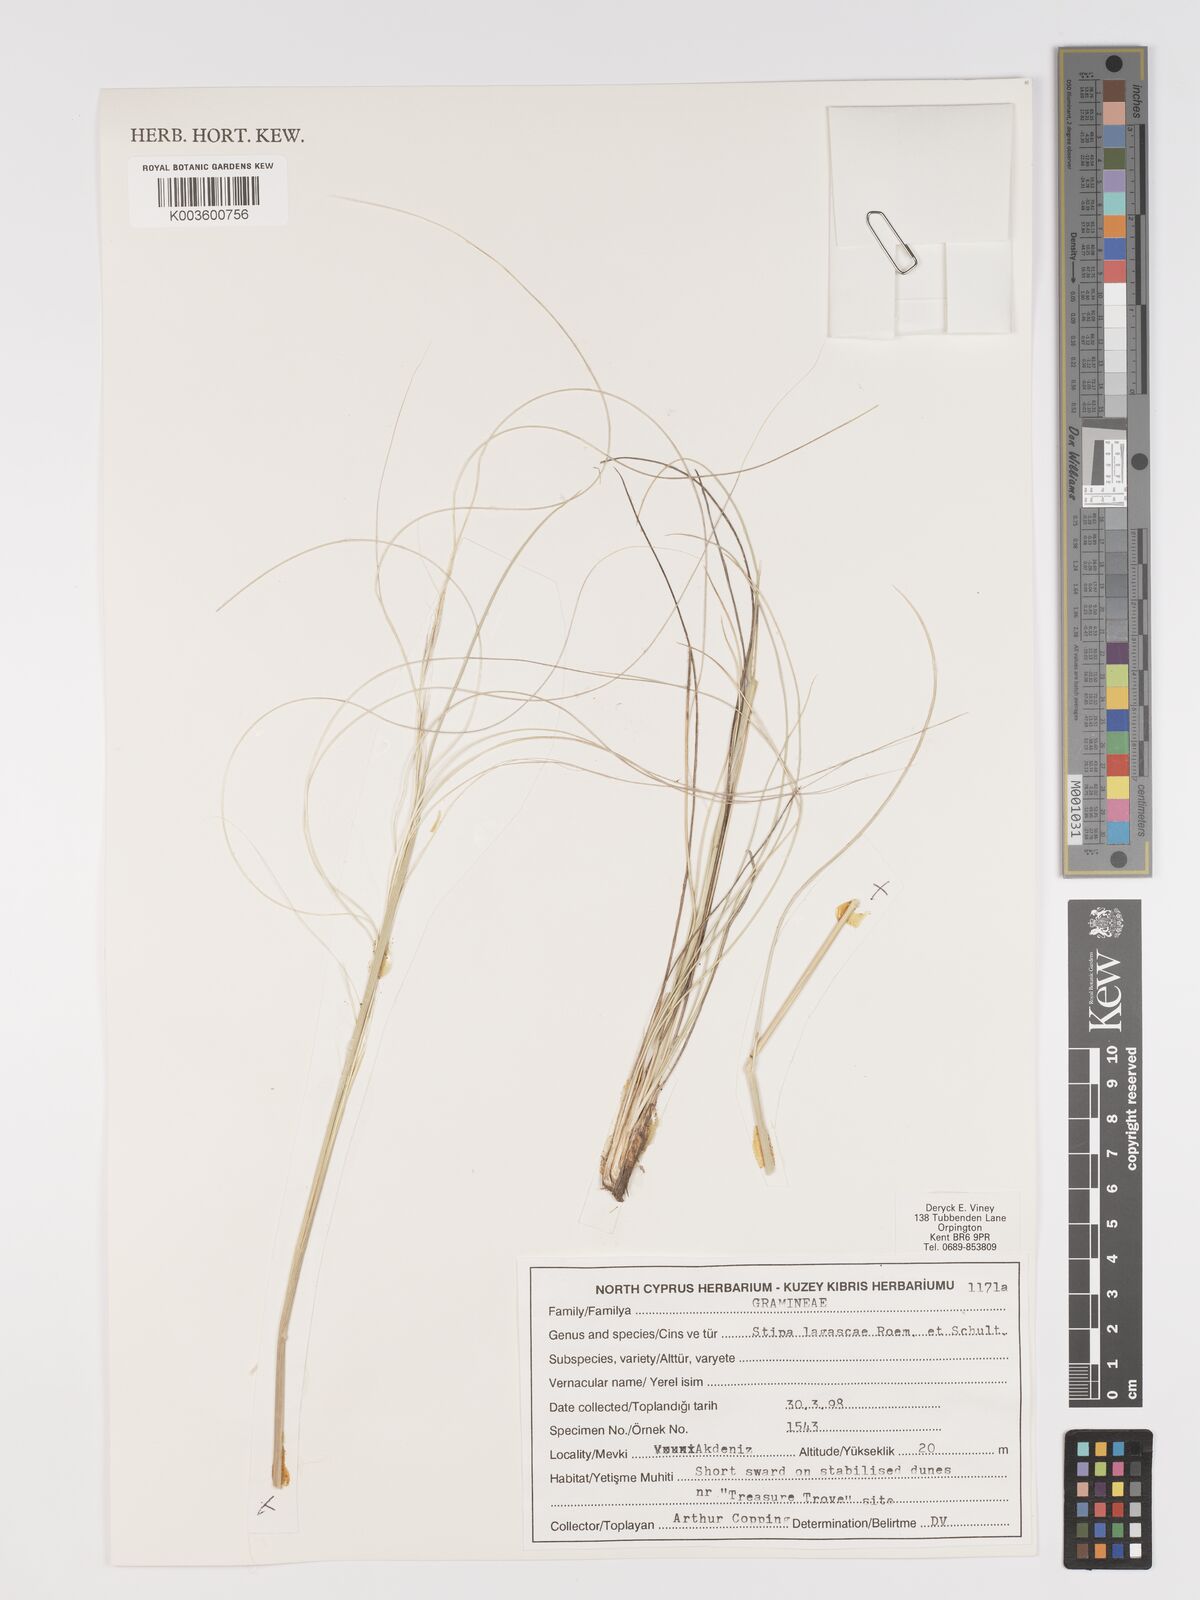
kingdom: Plantae
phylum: Tracheophyta
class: Liliopsida
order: Poales
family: Poaceae
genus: Stipa
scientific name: Stipa lagascae
